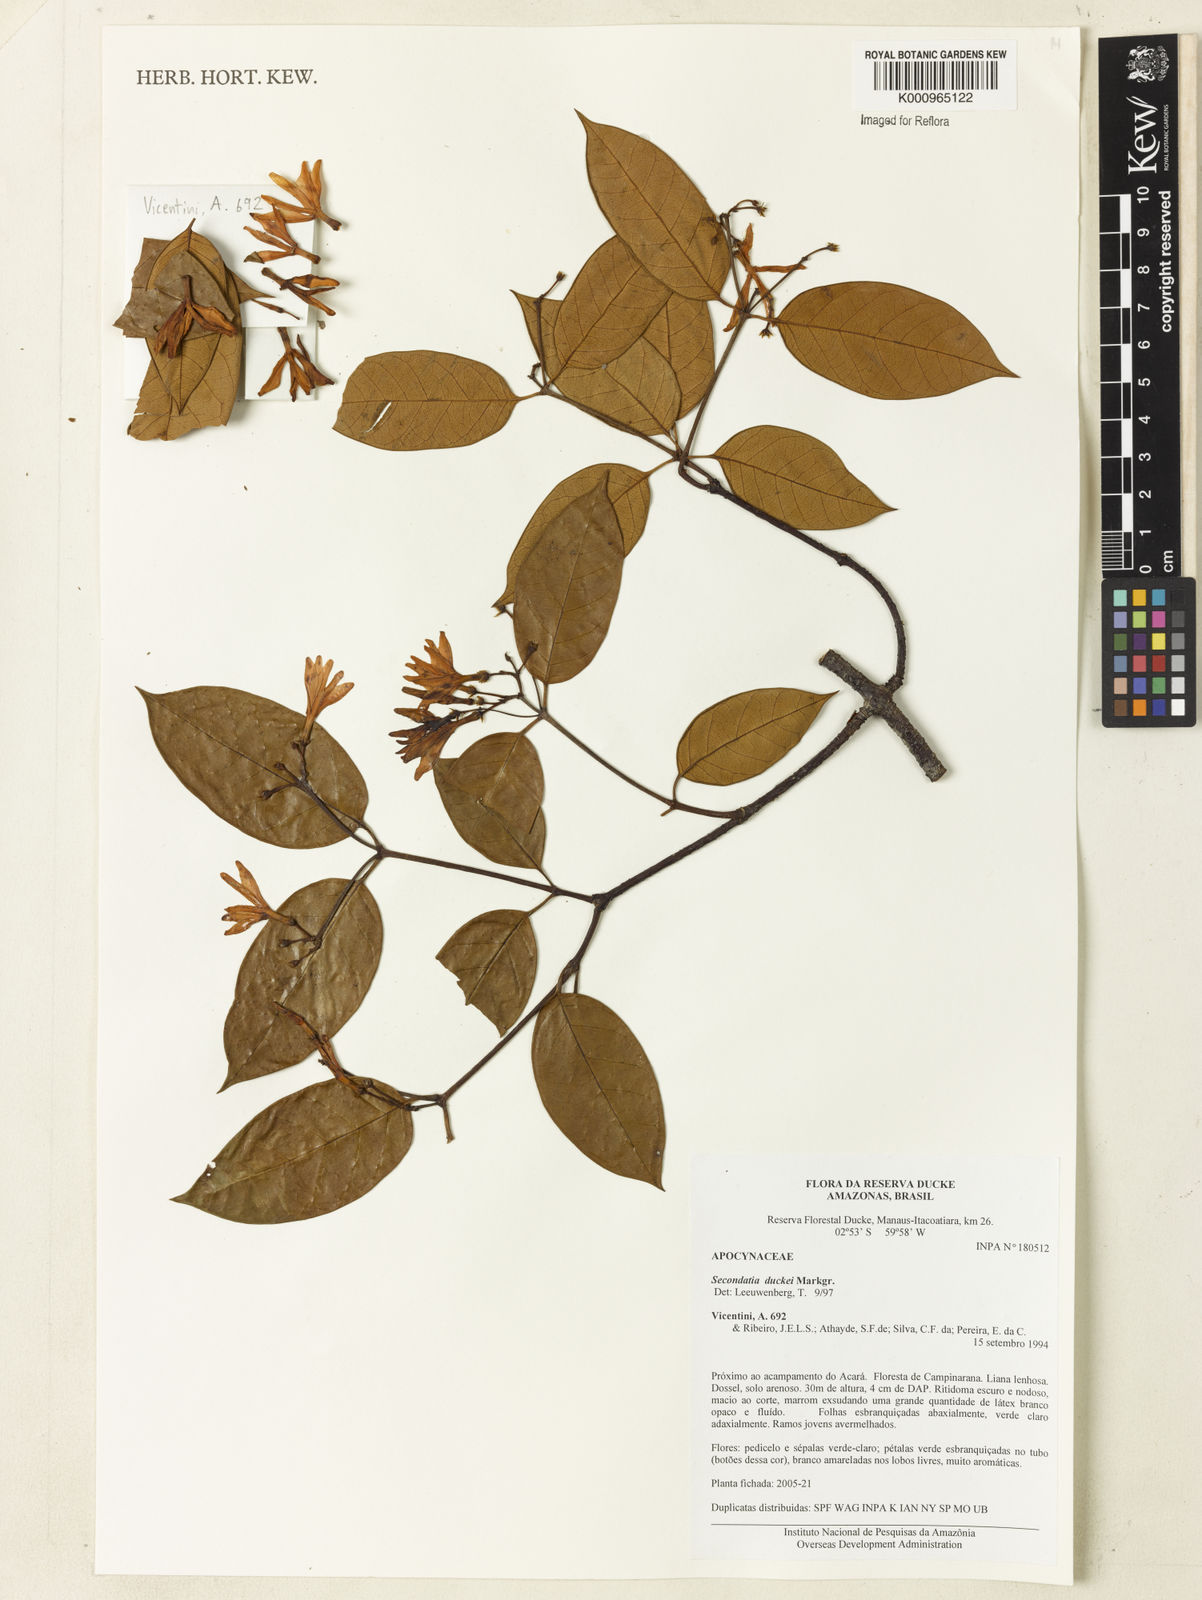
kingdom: Plantae
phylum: Tracheophyta
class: Magnoliopsida
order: Gentianales
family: Apocynaceae
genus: Secondatia
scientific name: Secondatia duckei
